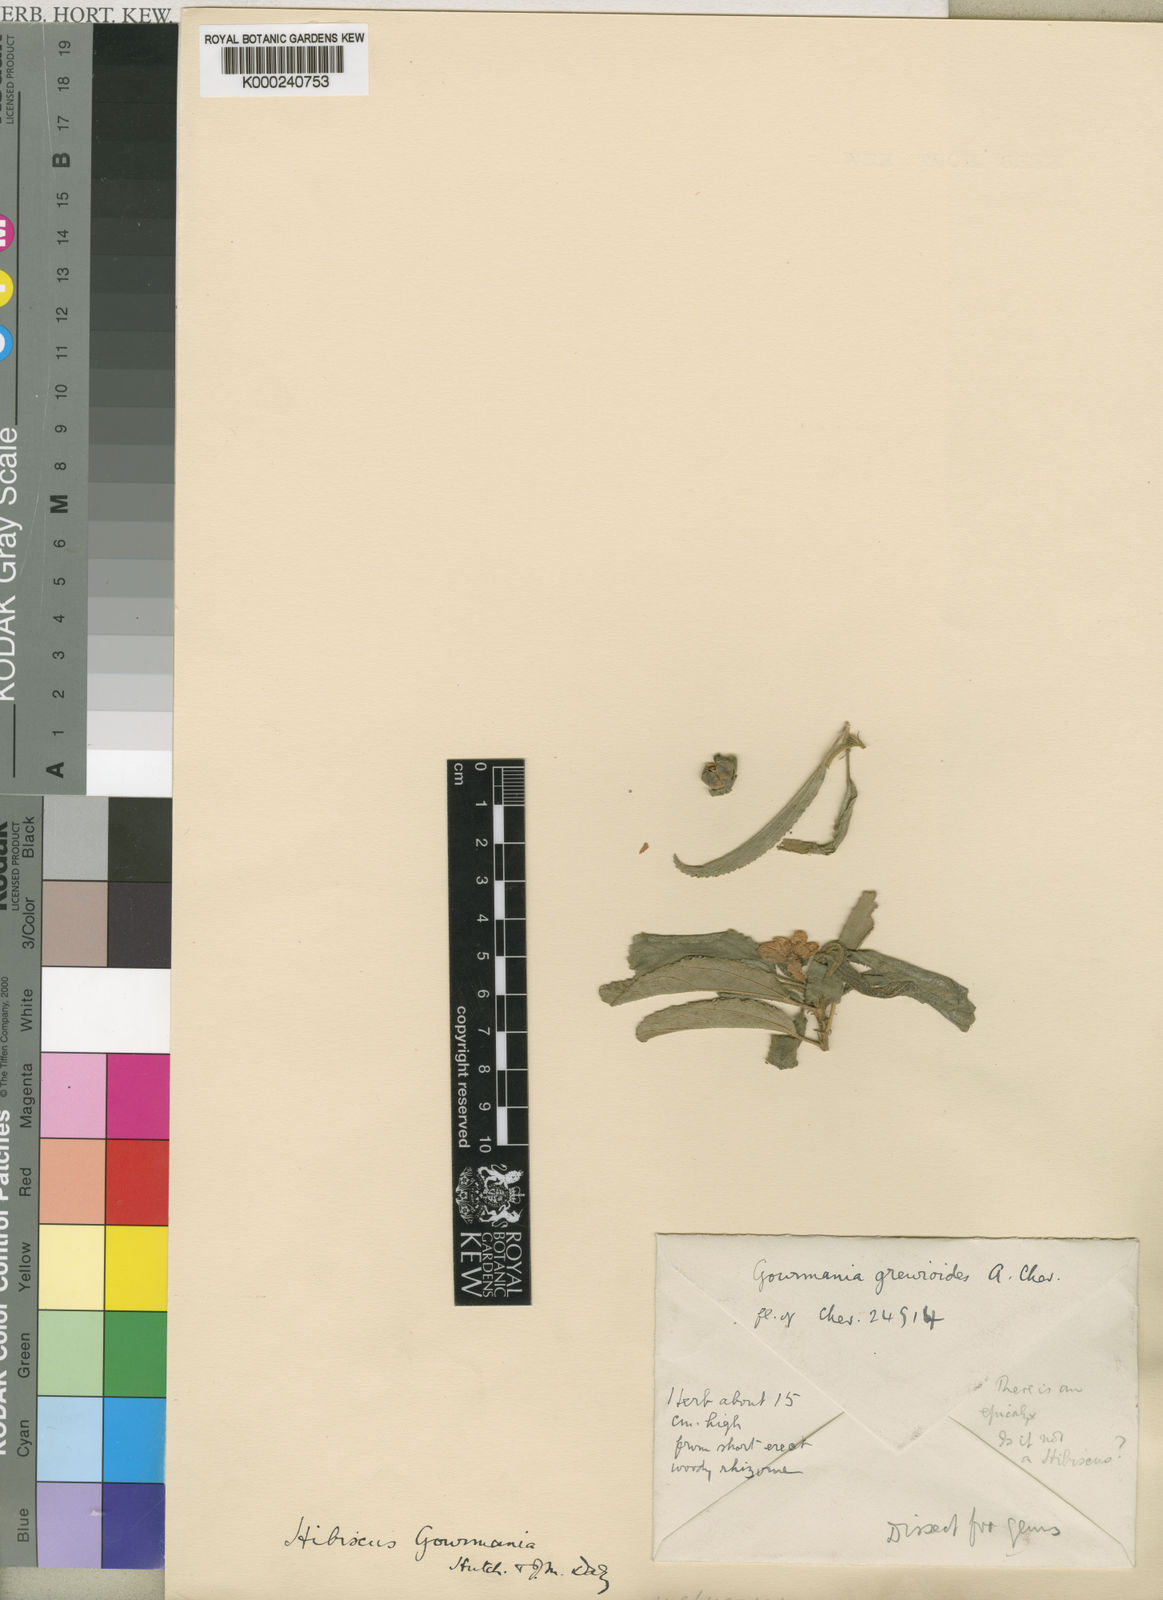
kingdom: Plantae
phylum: Tracheophyta
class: Magnoliopsida
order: Malvales
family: Malvaceae
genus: Hibiscus
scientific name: Hibiscus gourmania
